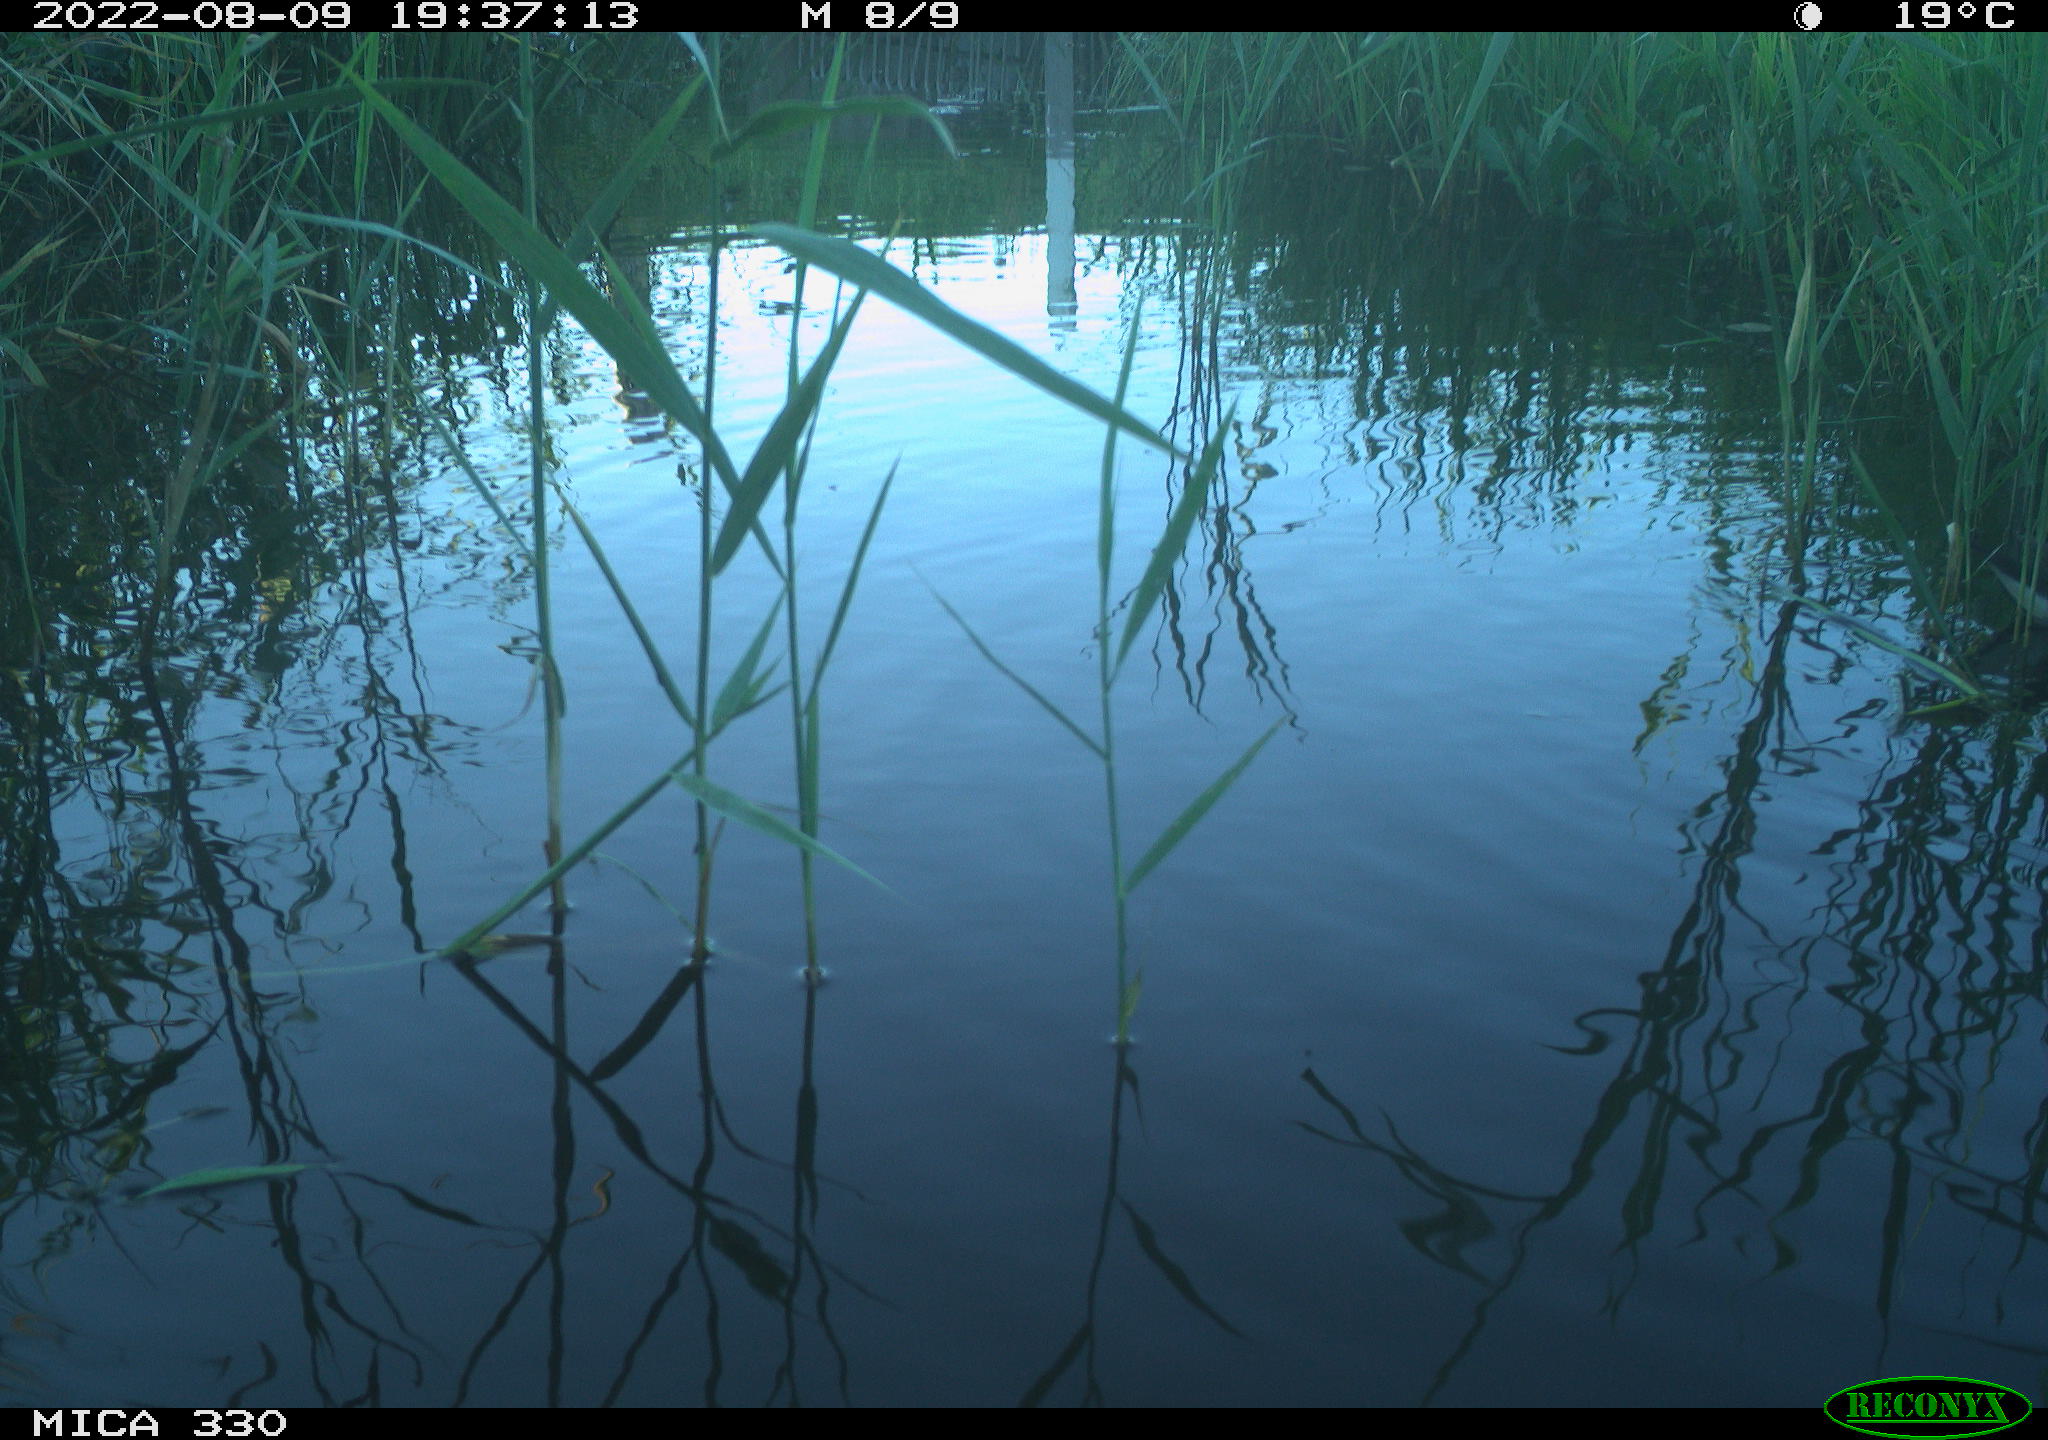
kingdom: Animalia
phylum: Chordata
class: Aves
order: Gruiformes
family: Rallidae
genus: Gallinula
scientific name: Gallinula chloropus
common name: Common moorhen
